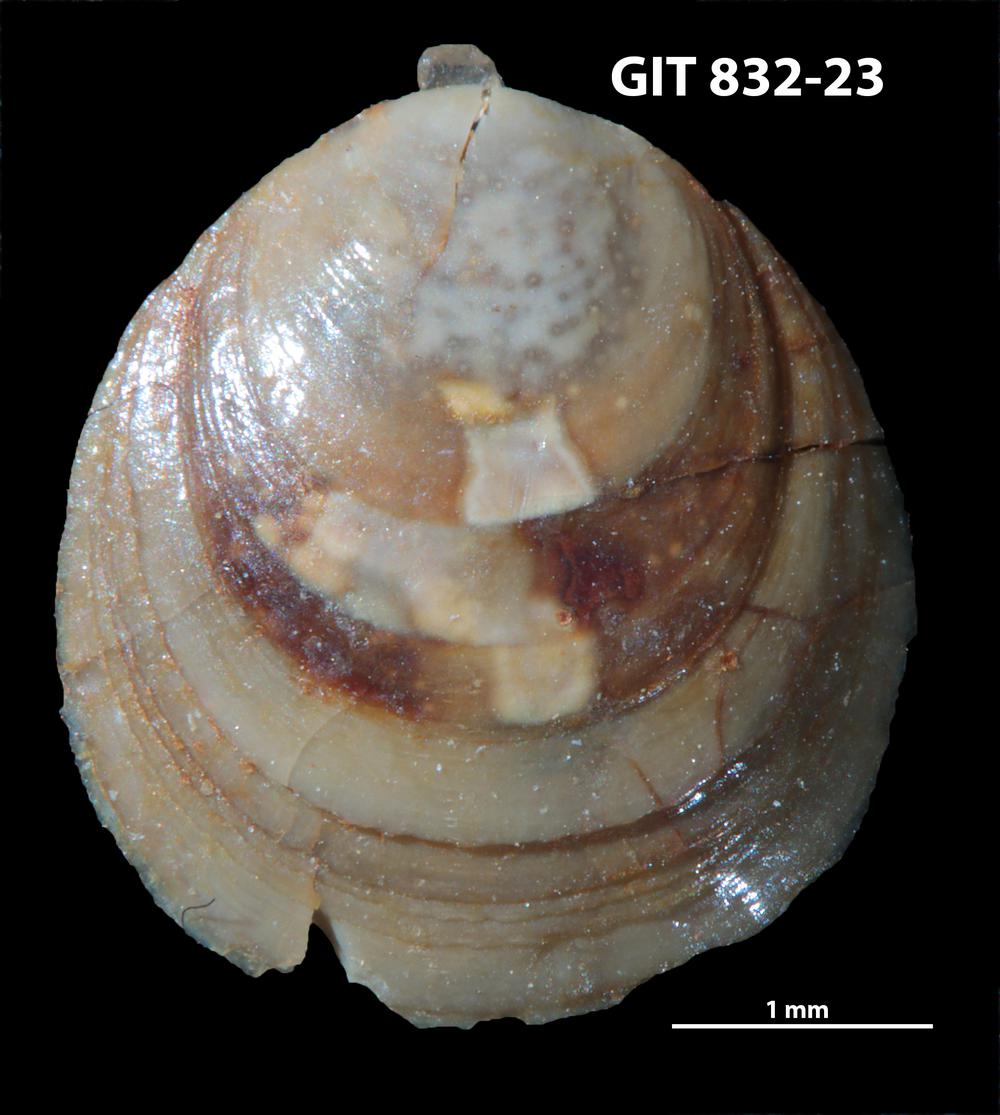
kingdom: Animalia
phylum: Brachiopoda
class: Lingulata
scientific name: Lingulata
